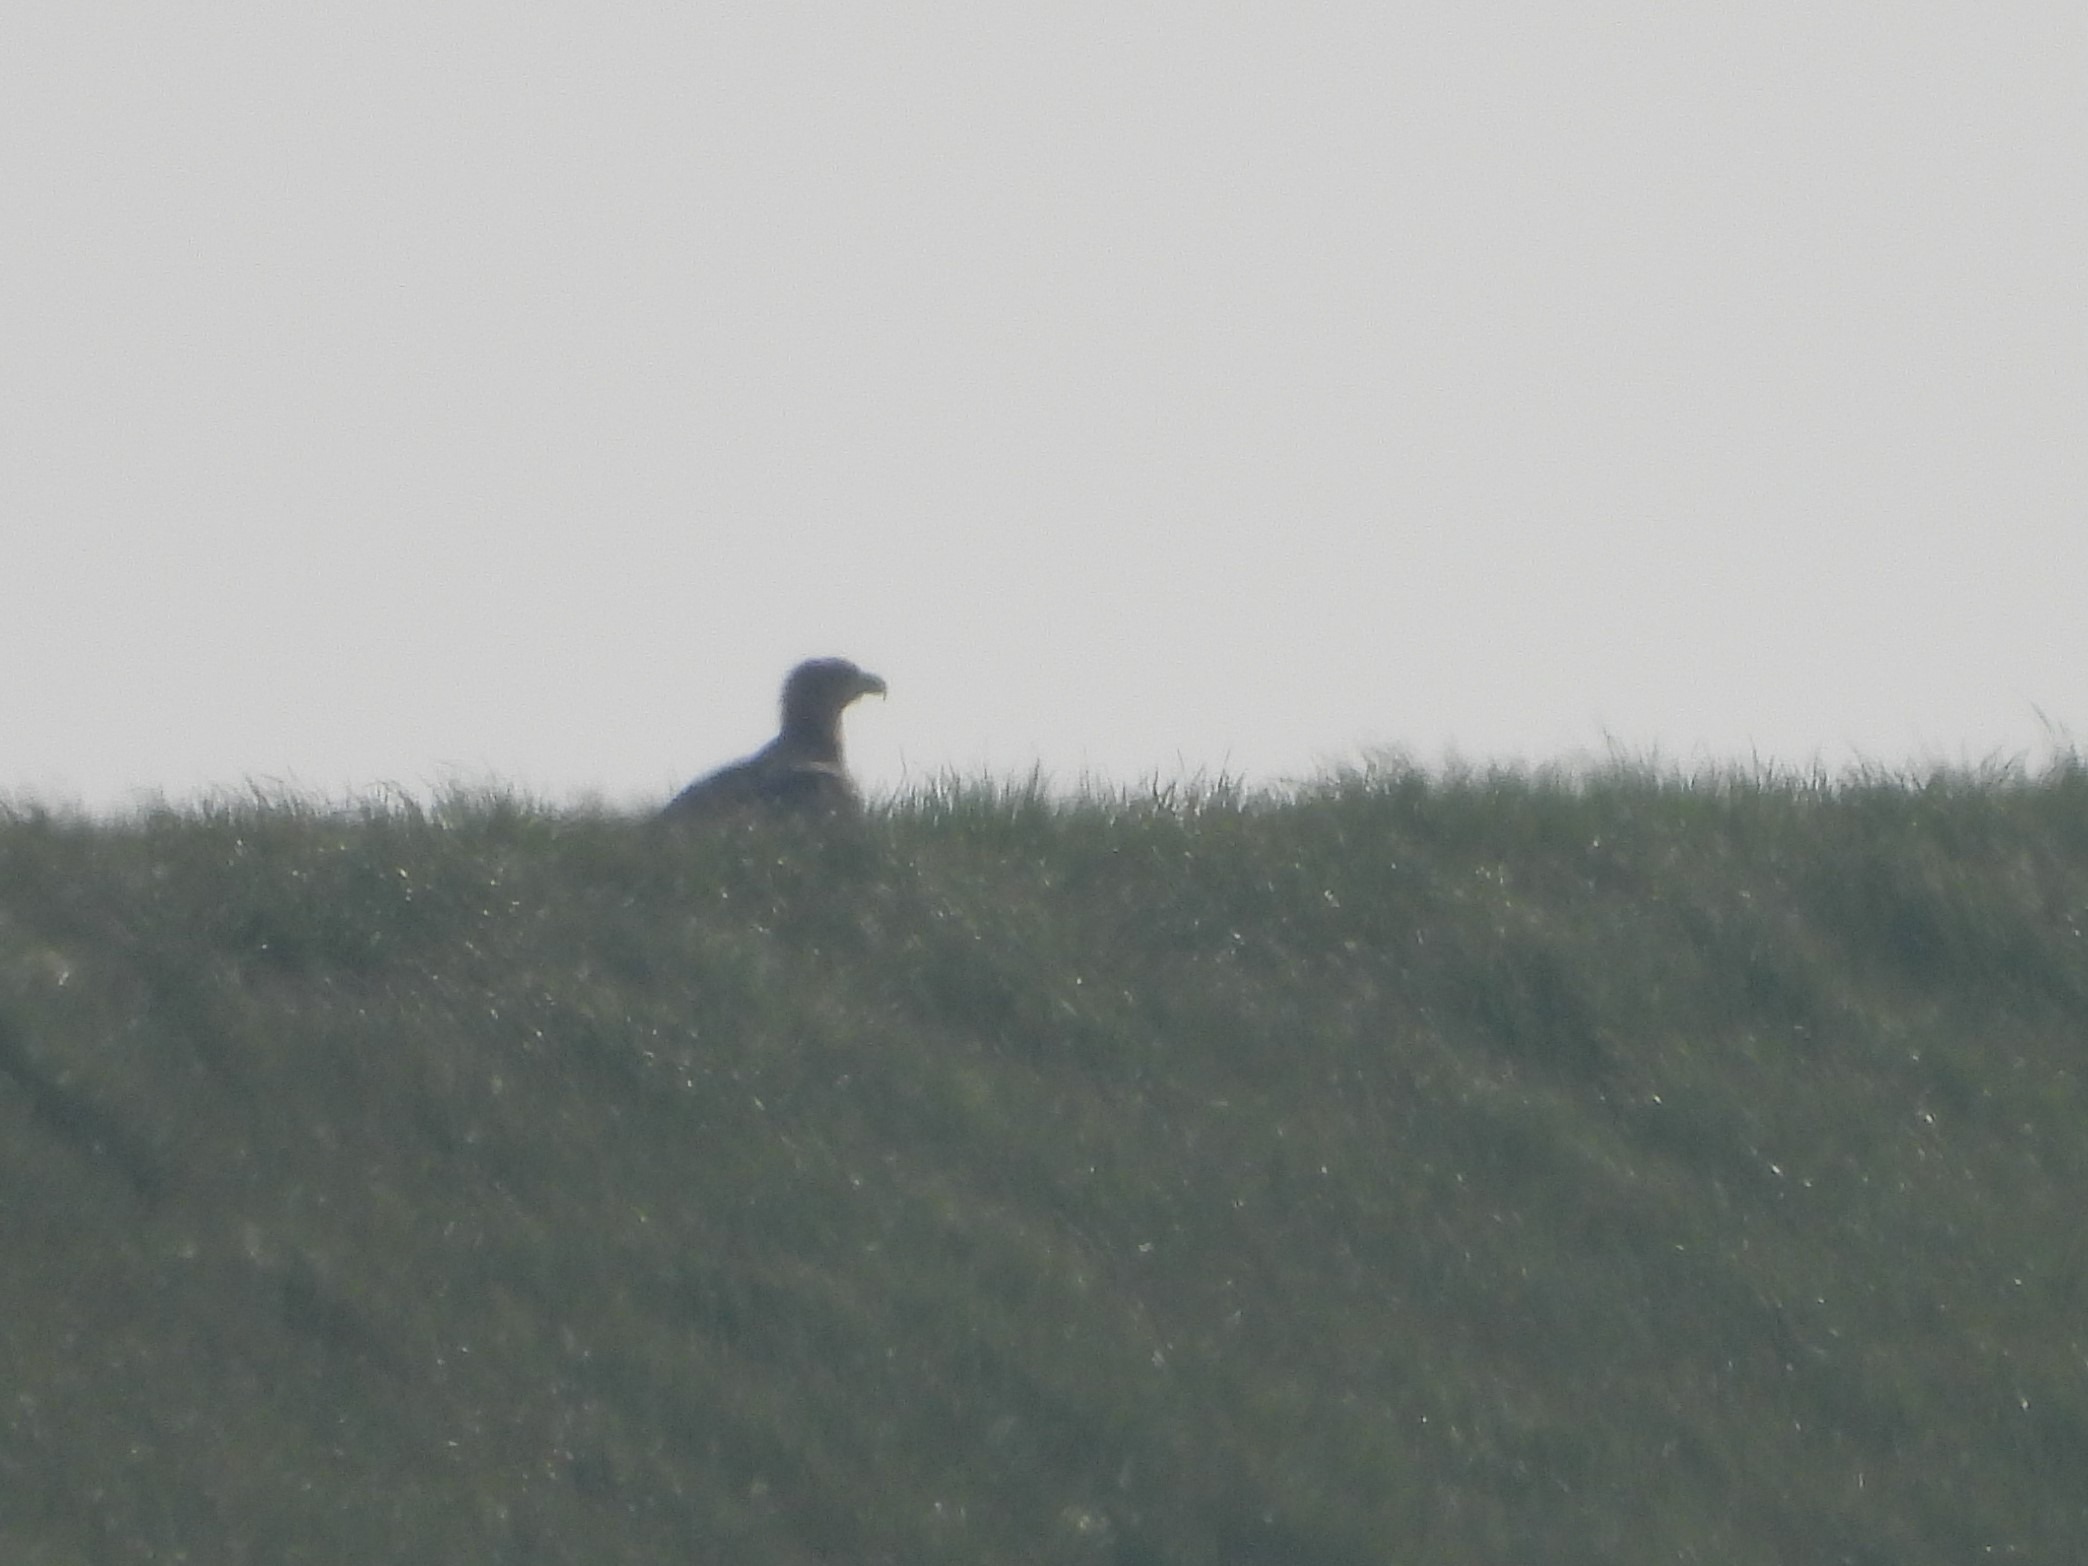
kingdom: Animalia
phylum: Chordata
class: Aves
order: Accipitriformes
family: Accipitridae
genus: Haliaeetus
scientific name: Haliaeetus albicilla
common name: Havørn
